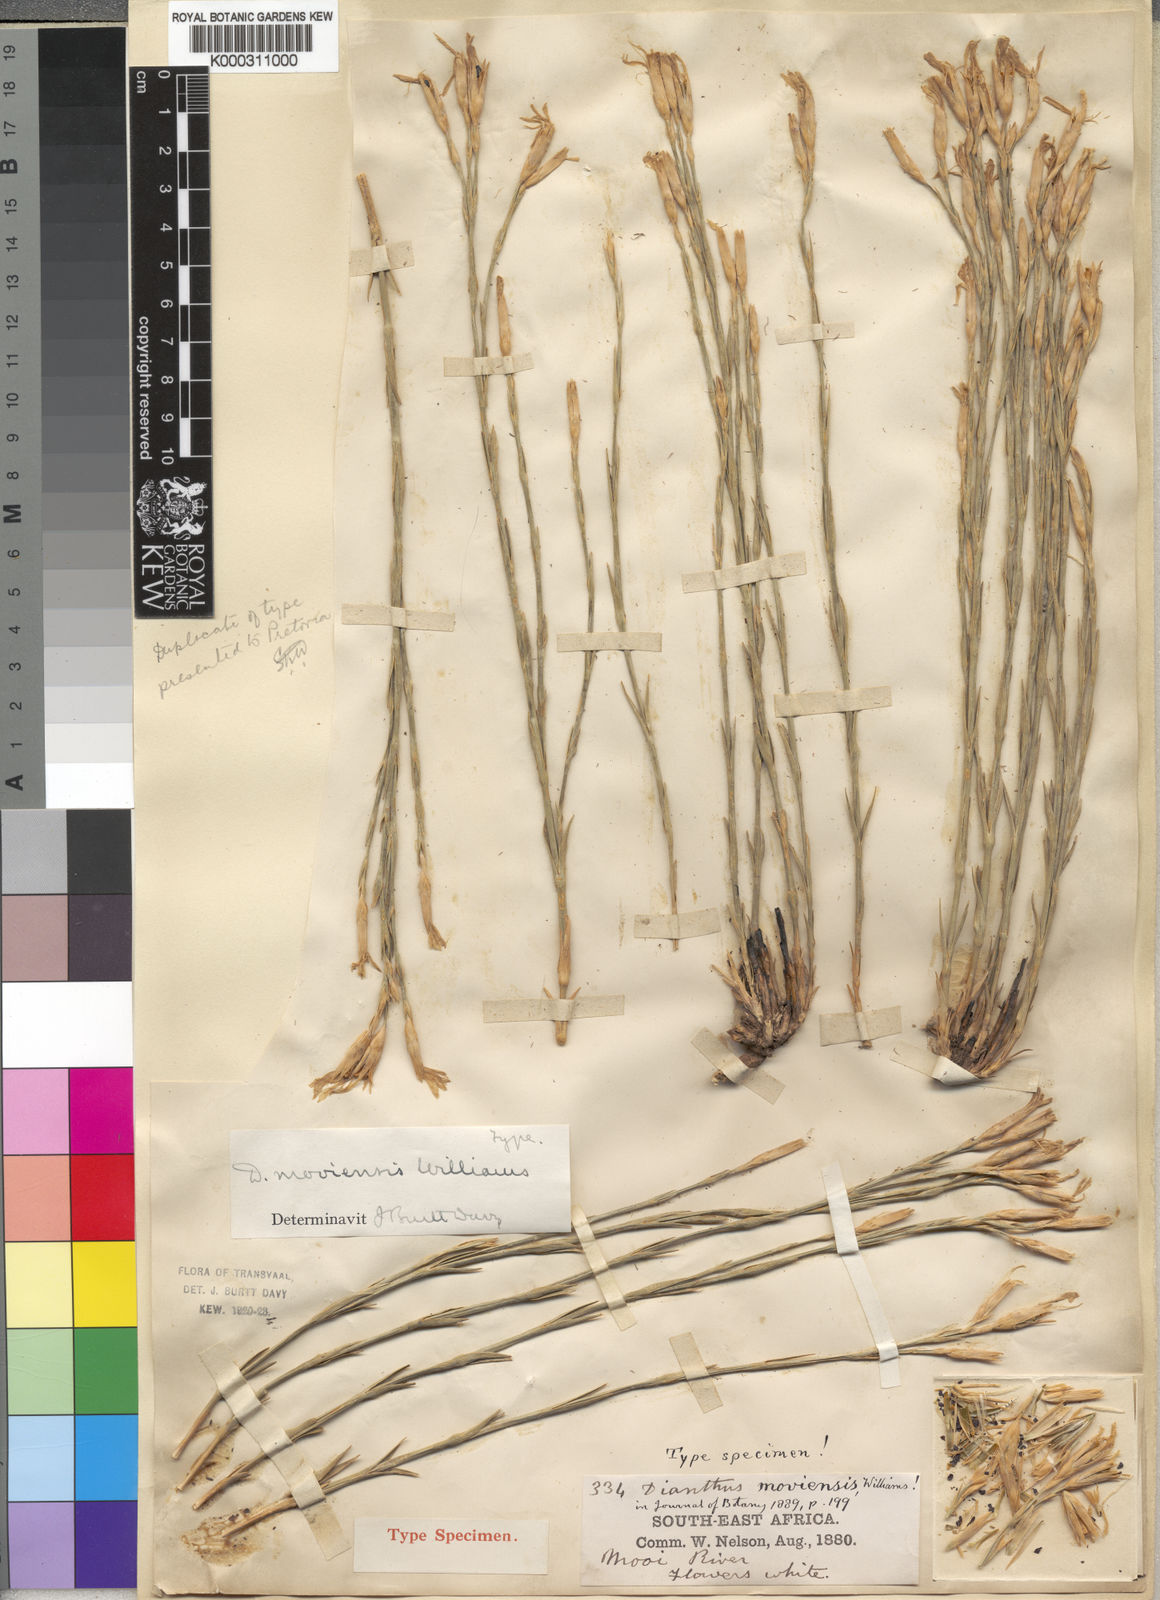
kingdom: Plantae
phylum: Tracheophyta
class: Magnoliopsida
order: Caryophyllales
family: Caryophyllaceae
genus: Dianthus
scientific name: Dianthus
